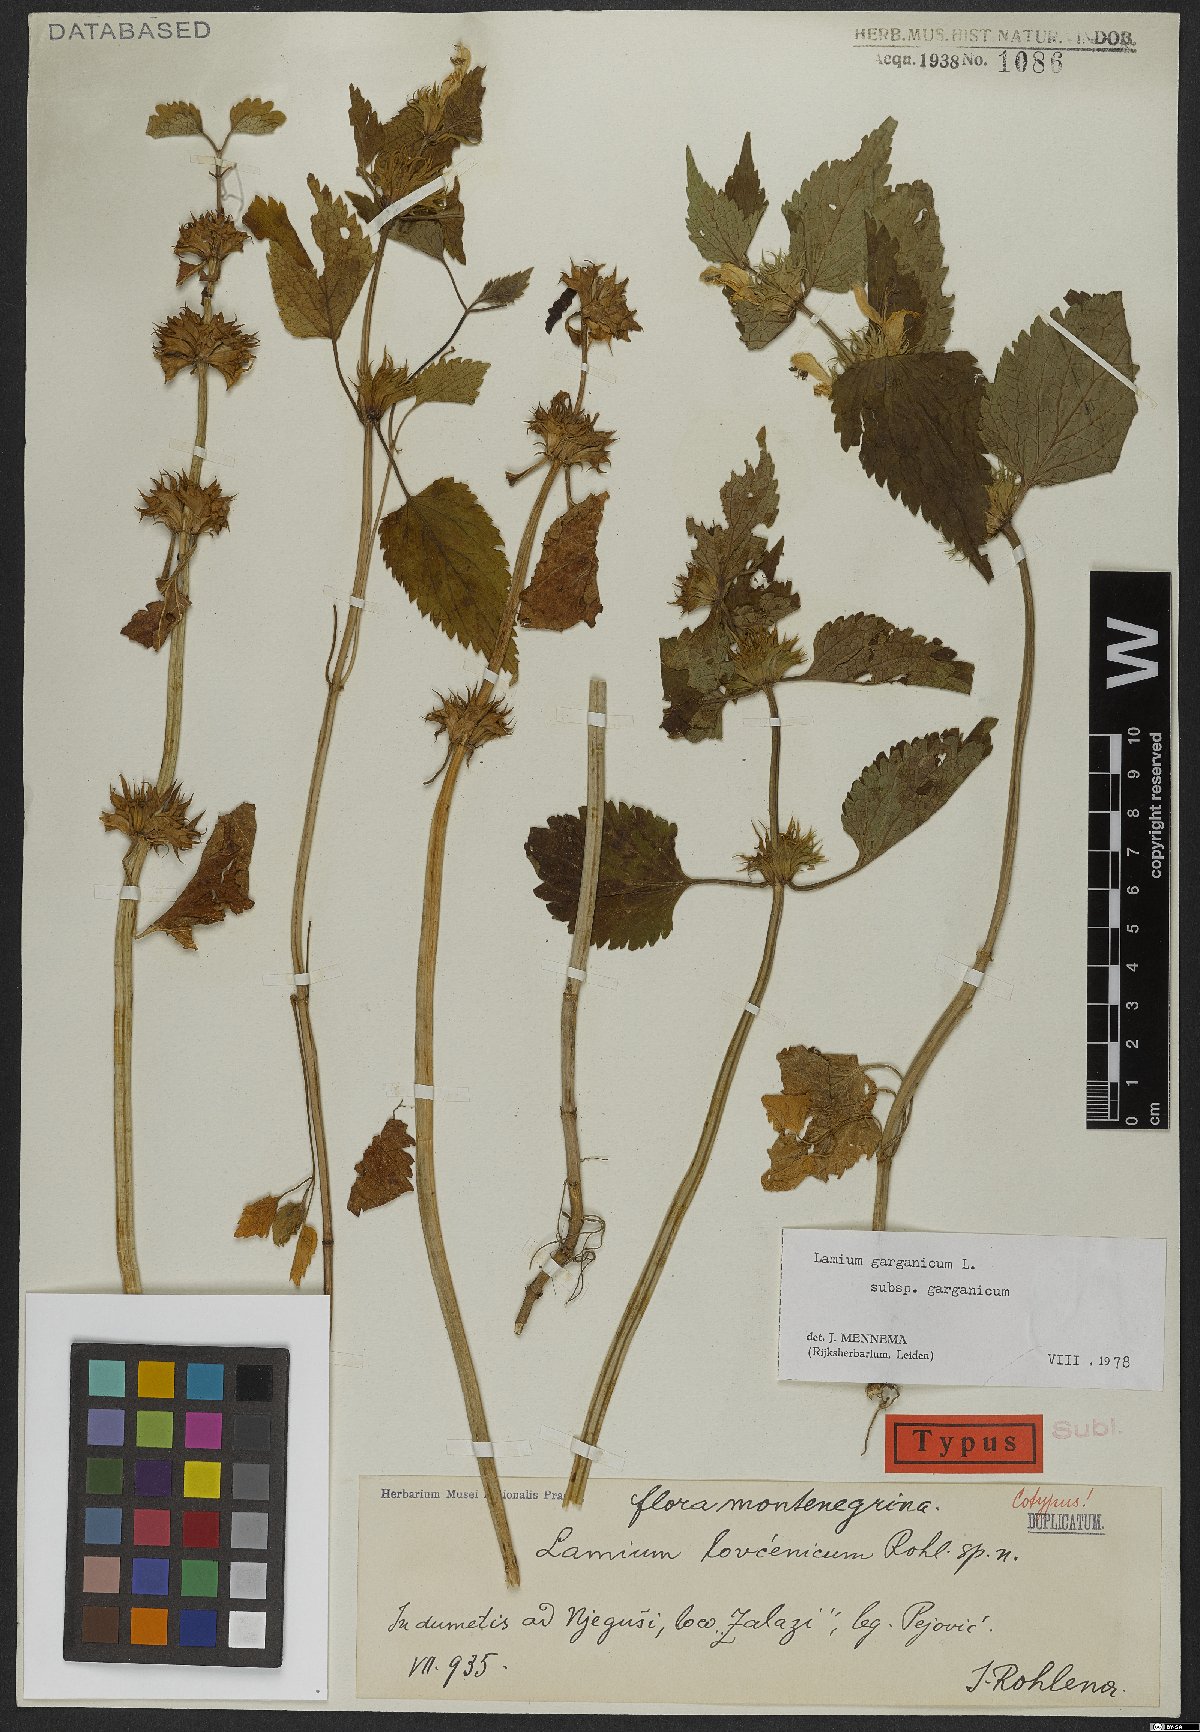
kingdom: Plantae
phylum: Tracheophyta
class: Magnoliopsida
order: Lamiales
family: Lamiaceae
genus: Lamium
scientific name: Lamium garganicum
